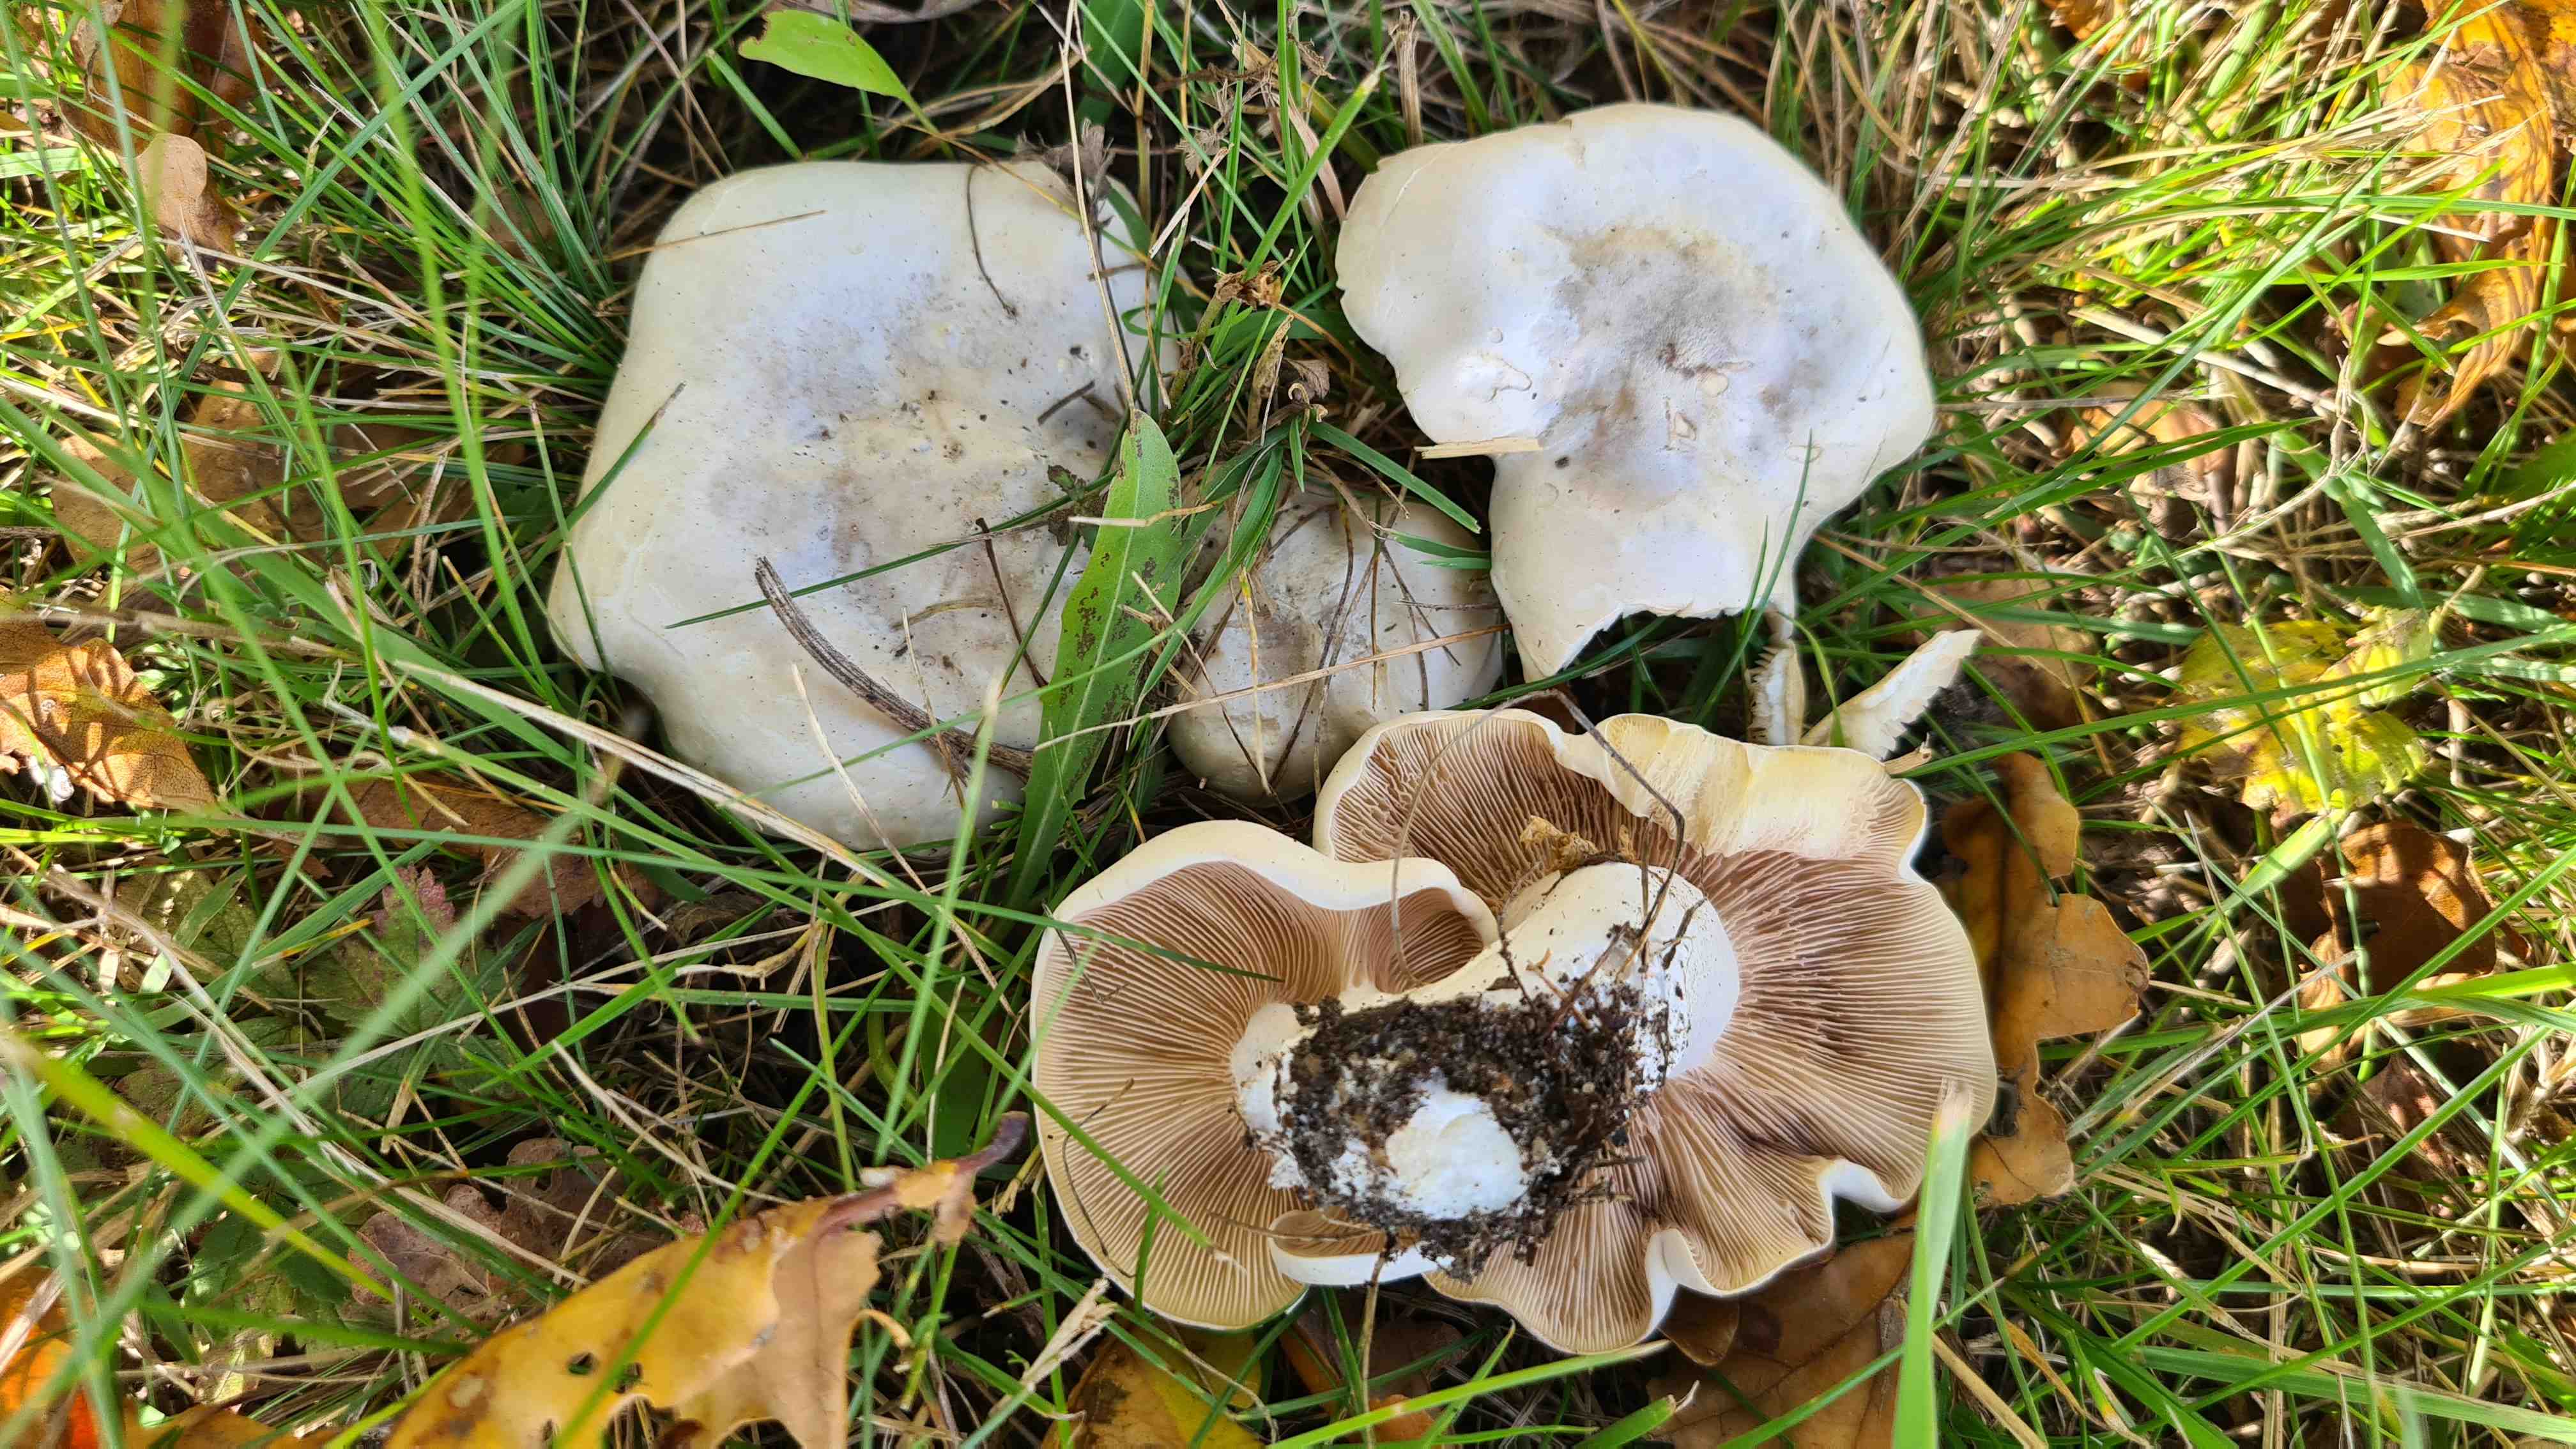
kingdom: Fungi
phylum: Basidiomycota
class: Agaricomycetes
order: Agaricales
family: Entolomataceae
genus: Clitopilus
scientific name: Clitopilus prunulus
